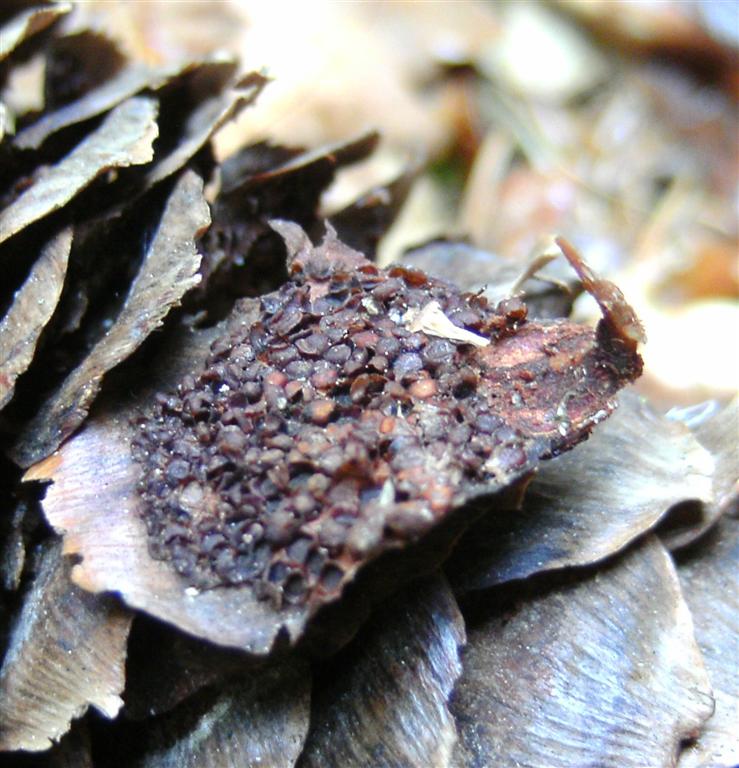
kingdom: Fungi
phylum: Basidiomycota
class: Pucciniomycetes
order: Pucciniales
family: Pucciniastraceae
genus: Thekopsora
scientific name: Thekopsora areolata
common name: grankogle-nålerust
